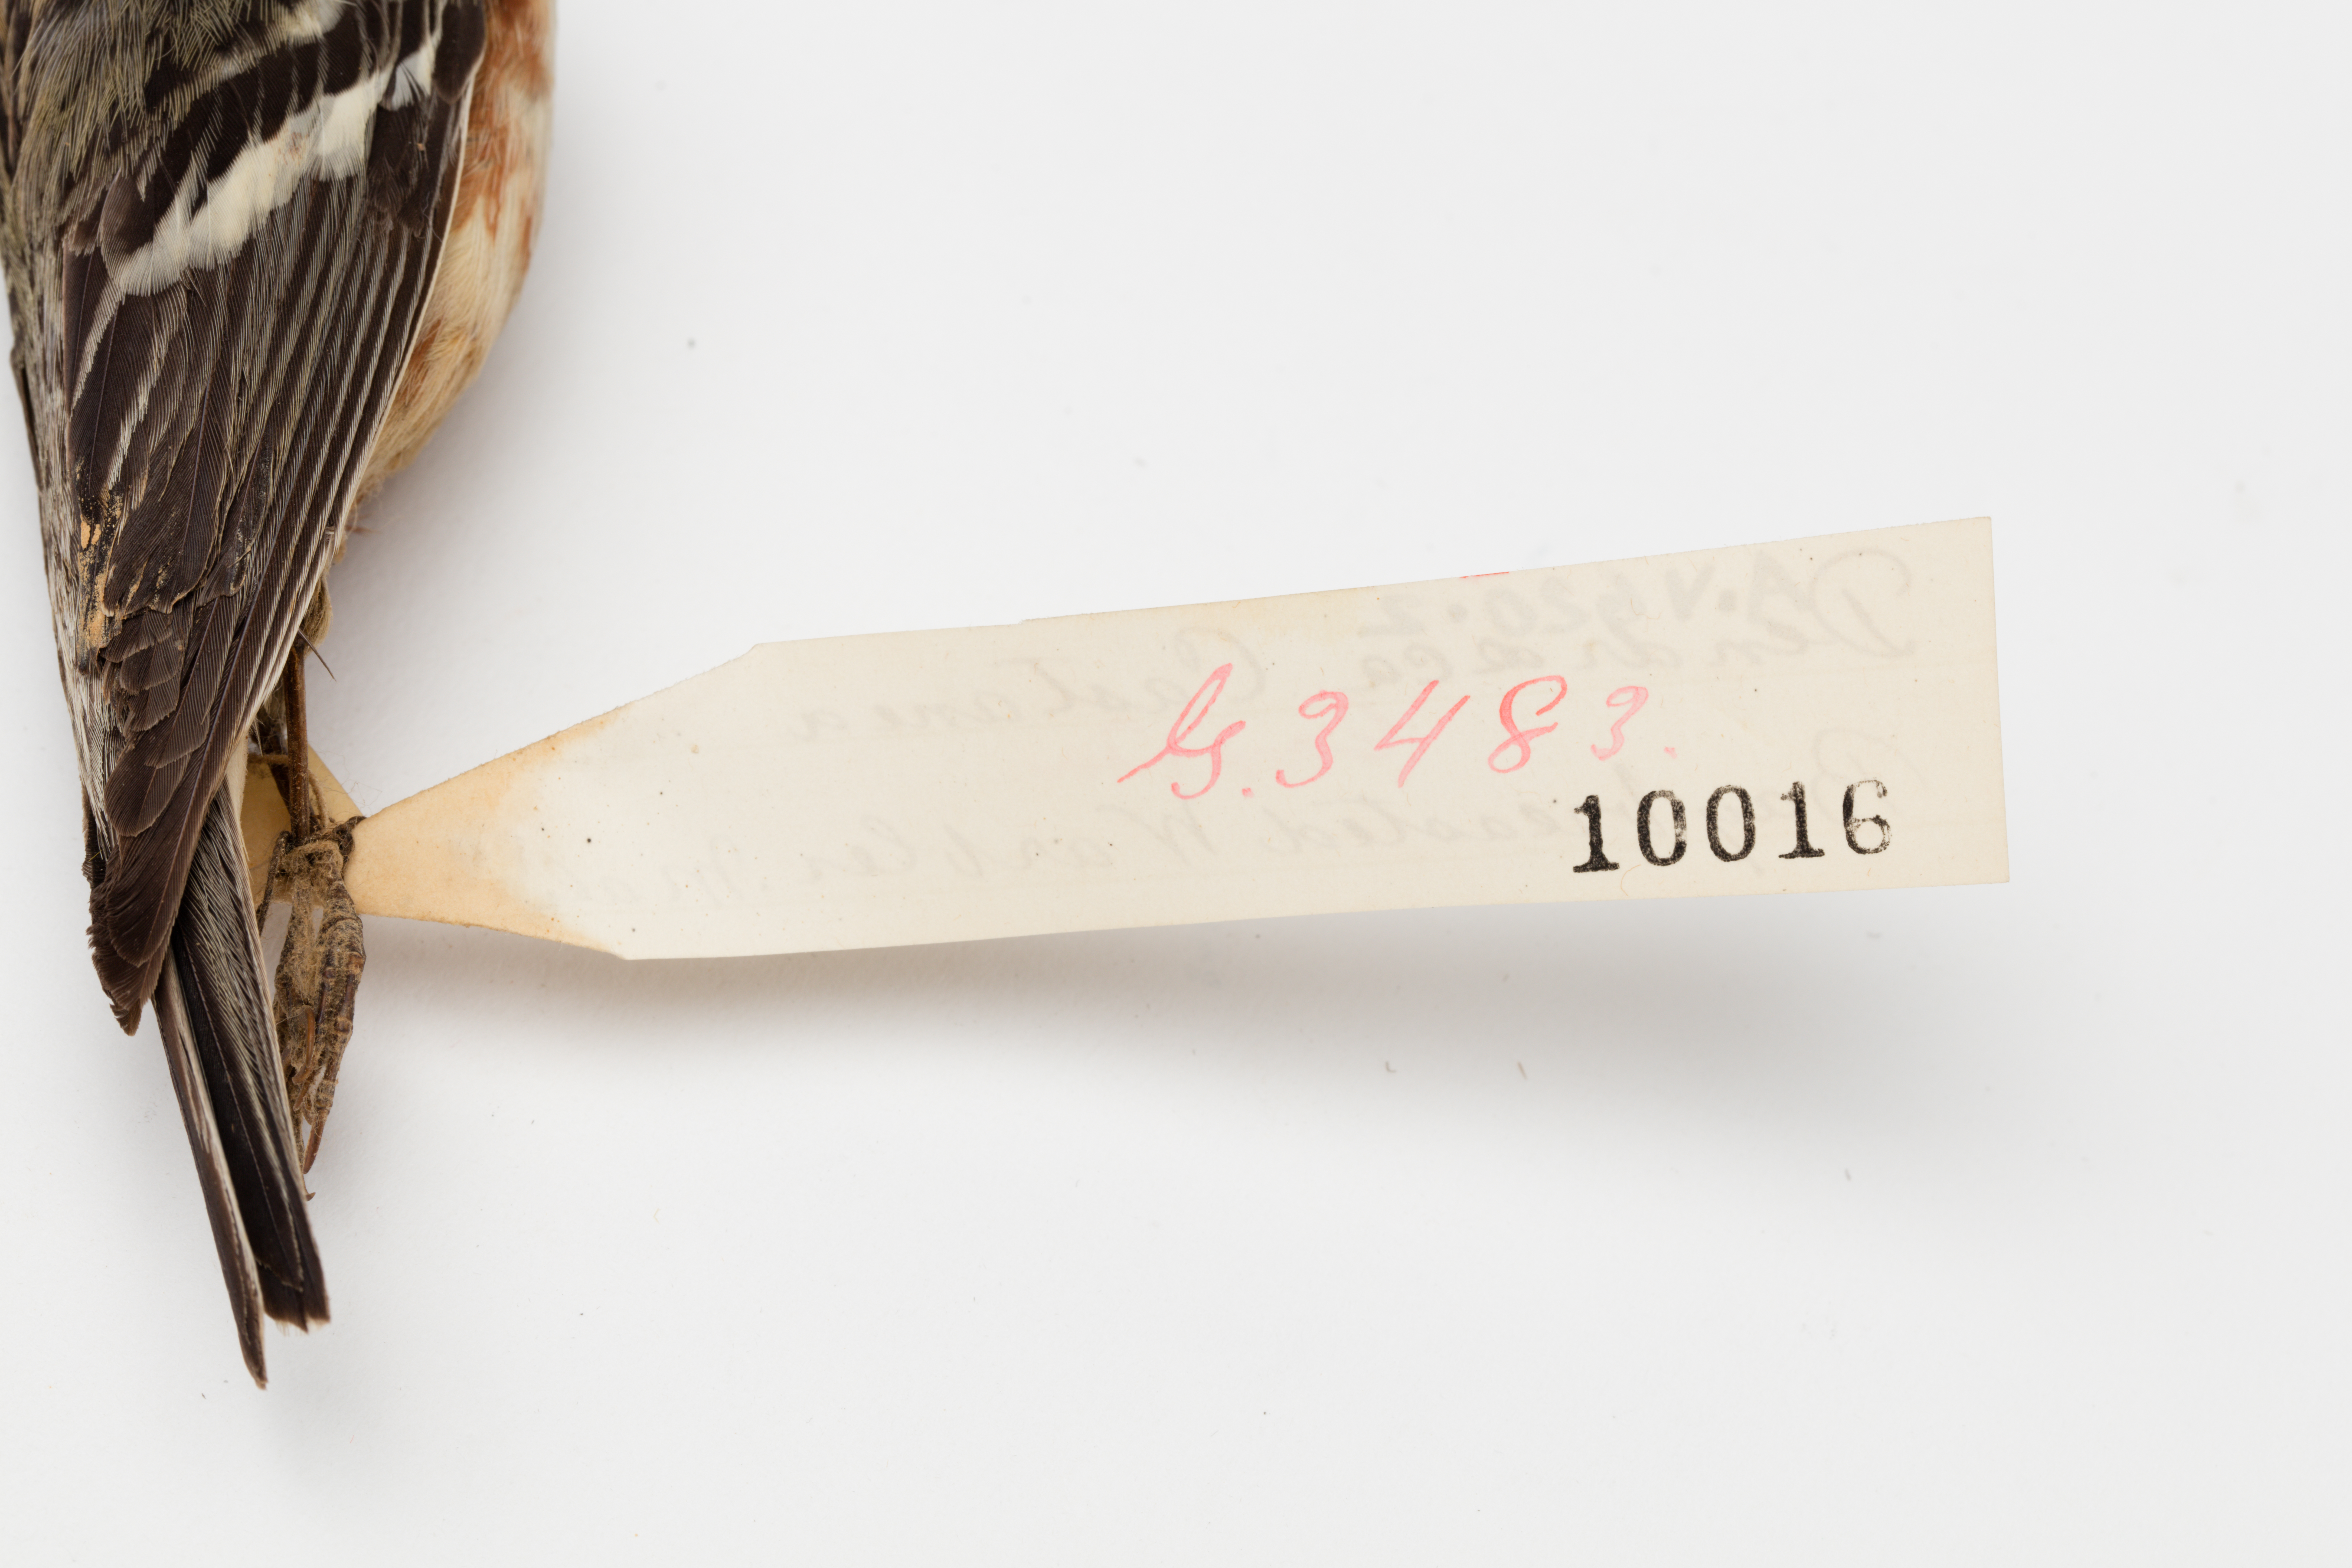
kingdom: Animalia
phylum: Chordata
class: Aves
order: Passeriformes
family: Parulidae
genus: Setophaga
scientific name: Setophaga castanea
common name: Bay-breasted warbler
